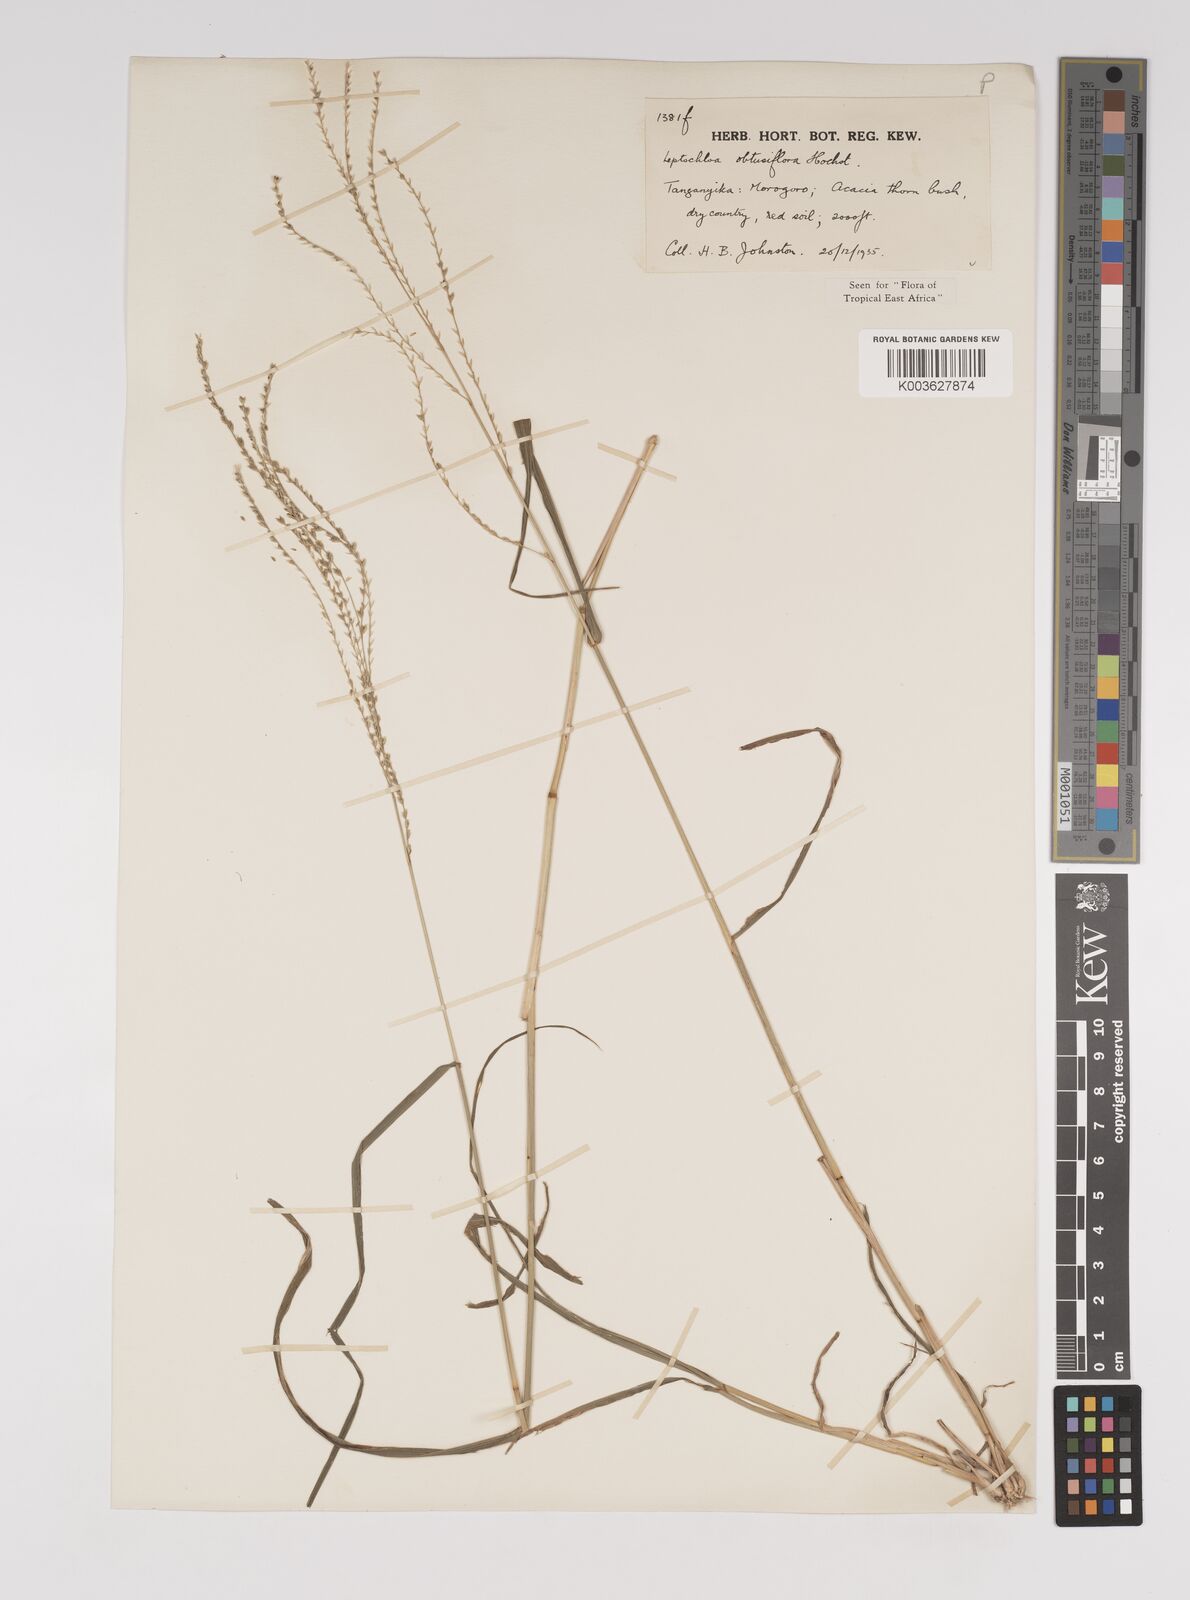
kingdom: Plantae
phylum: Tracheophyta
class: Liliopsida
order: Poales
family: Poaceae
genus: Disakisperma
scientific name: Disakisperma obtusiflorum
